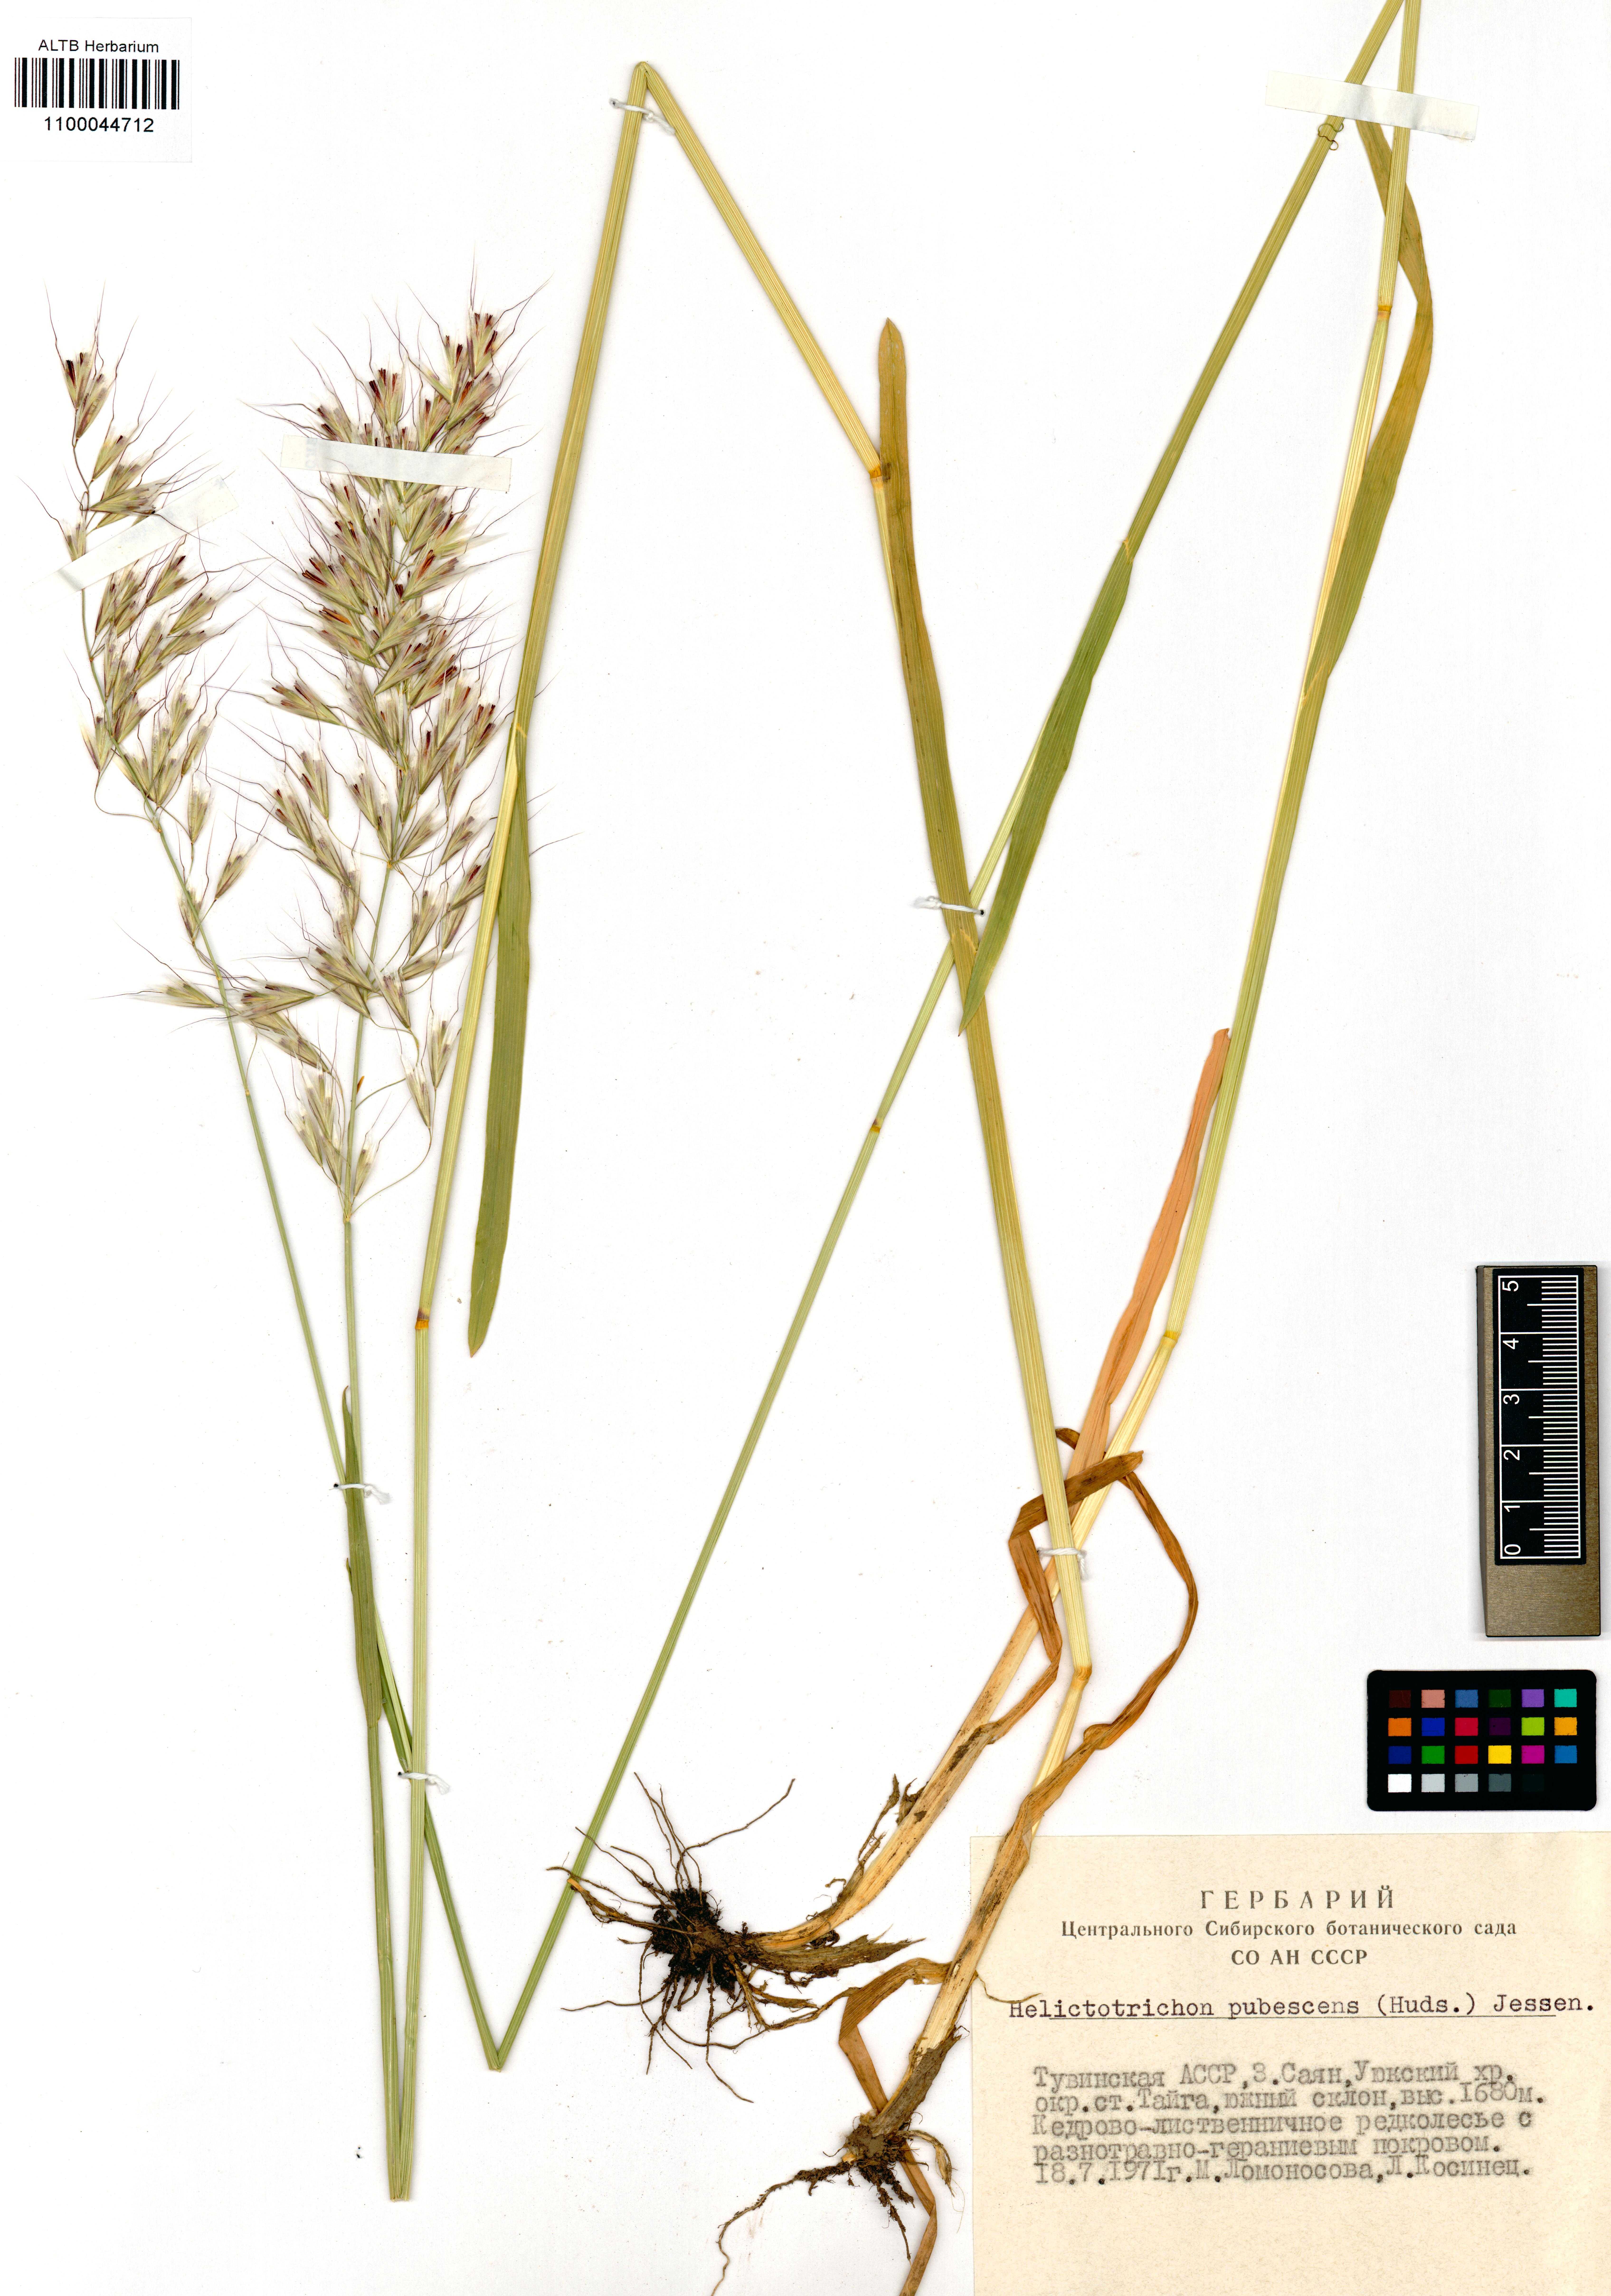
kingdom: Plantae
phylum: Tracheophyta
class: Liliopsida
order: Poales
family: Poaceae
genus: Avenula
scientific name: Avenula pubescens
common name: Downy alpine oatgrass
